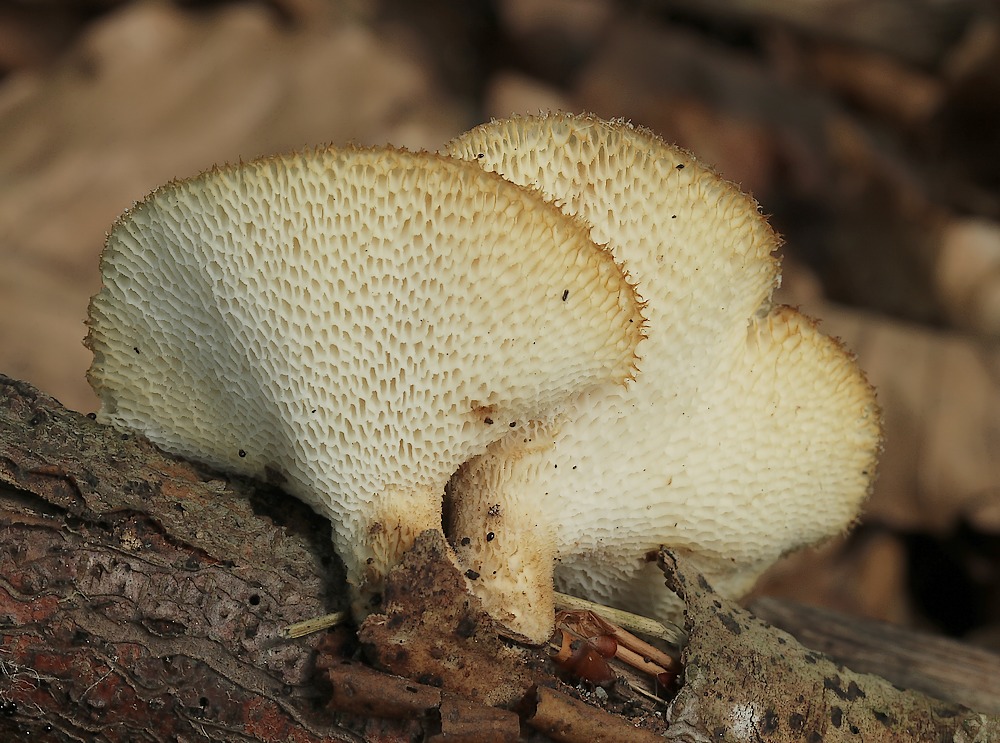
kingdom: Fungi
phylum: Basidiomycota
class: Agaricomycetes
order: Polyporales
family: Polyporaceae
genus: Polyporus
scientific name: Polyporus tuberaster
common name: knoldet stilkporesvamp
